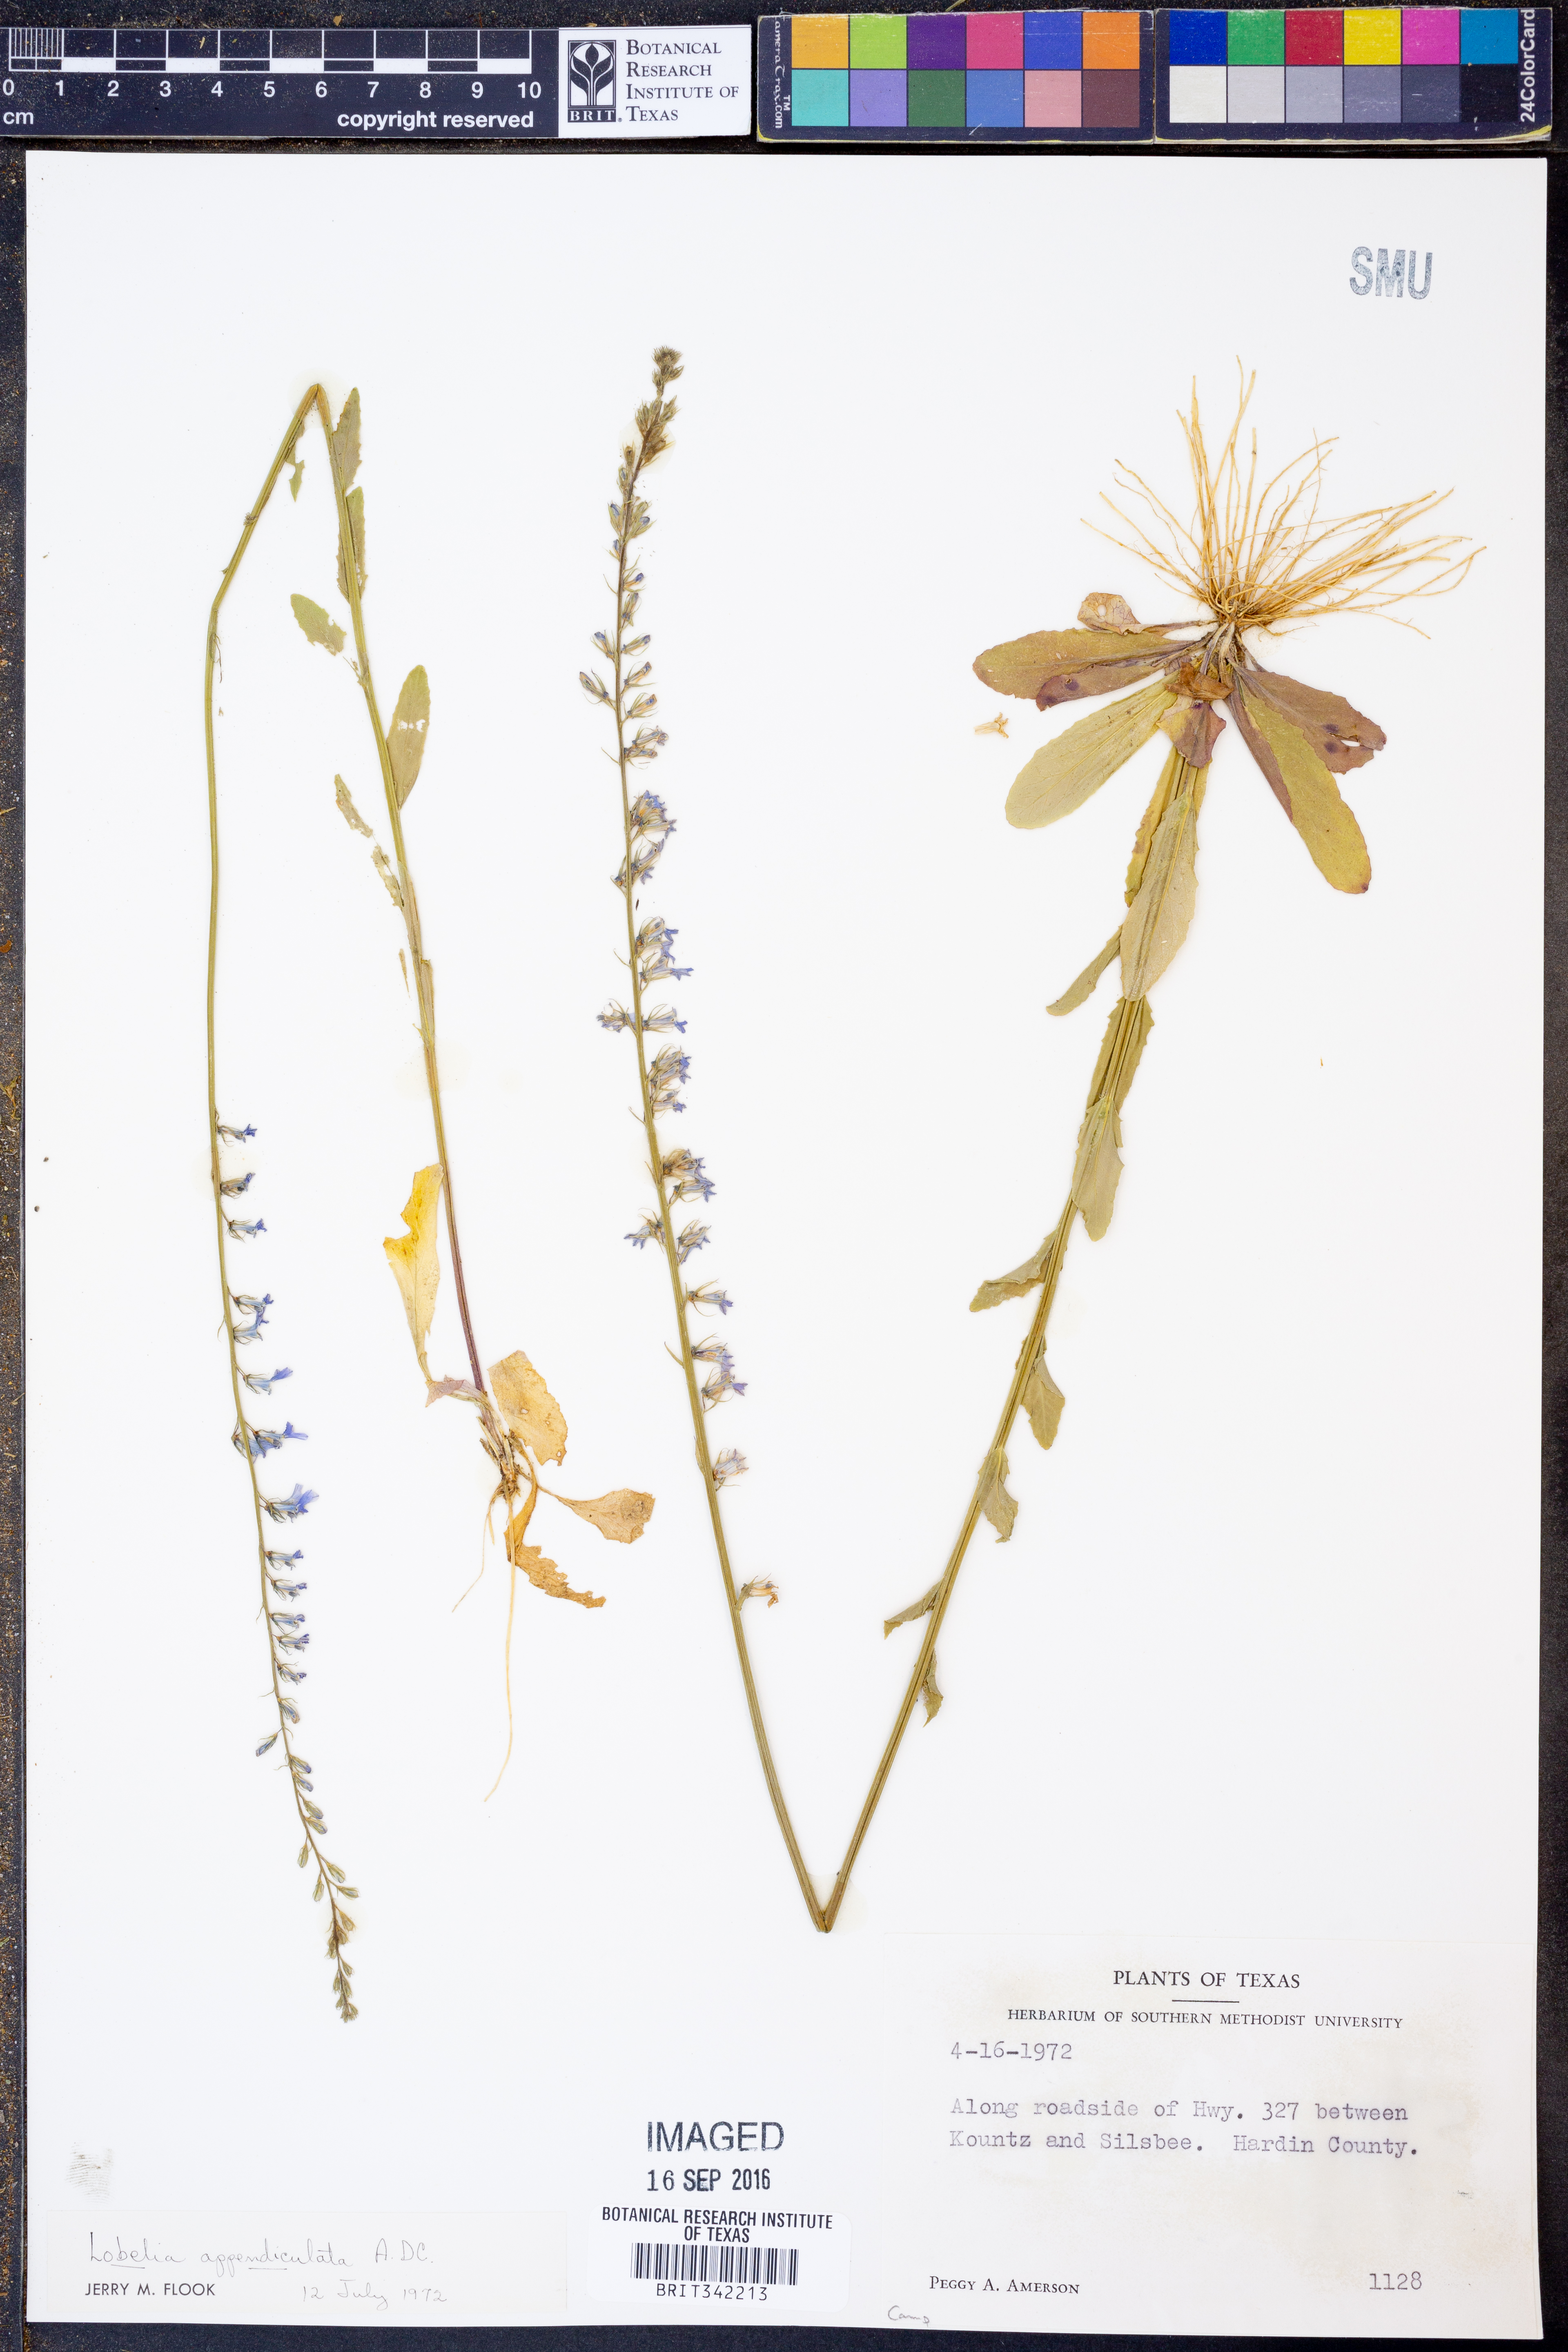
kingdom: Plantae
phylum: Tracheophyta
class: Magnoliopsida
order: Asterales
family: Campanulaceae
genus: Lobelia
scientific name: Lobelia appendiculata
